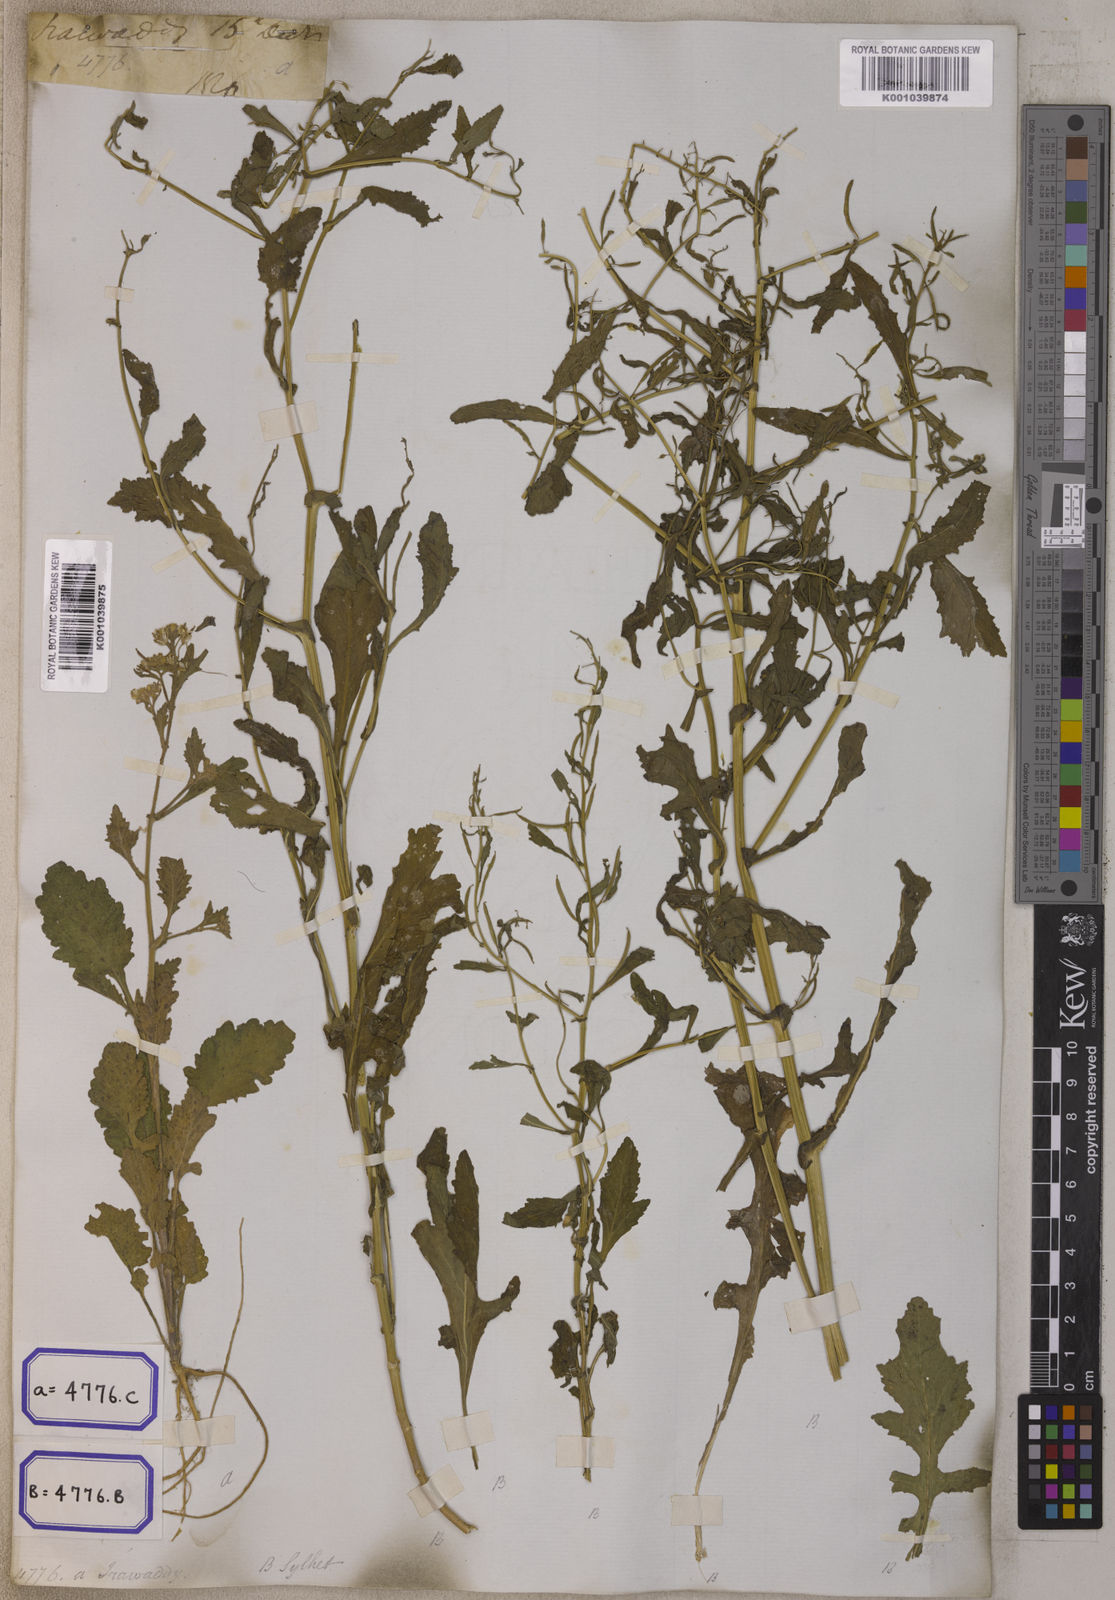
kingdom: Plantae
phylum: Tracheophyta
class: Magnoliopsida
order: Brassicales
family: Brassicaceae
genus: Rorippa
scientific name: Rorippa indica
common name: Variableleaf yellowcress
